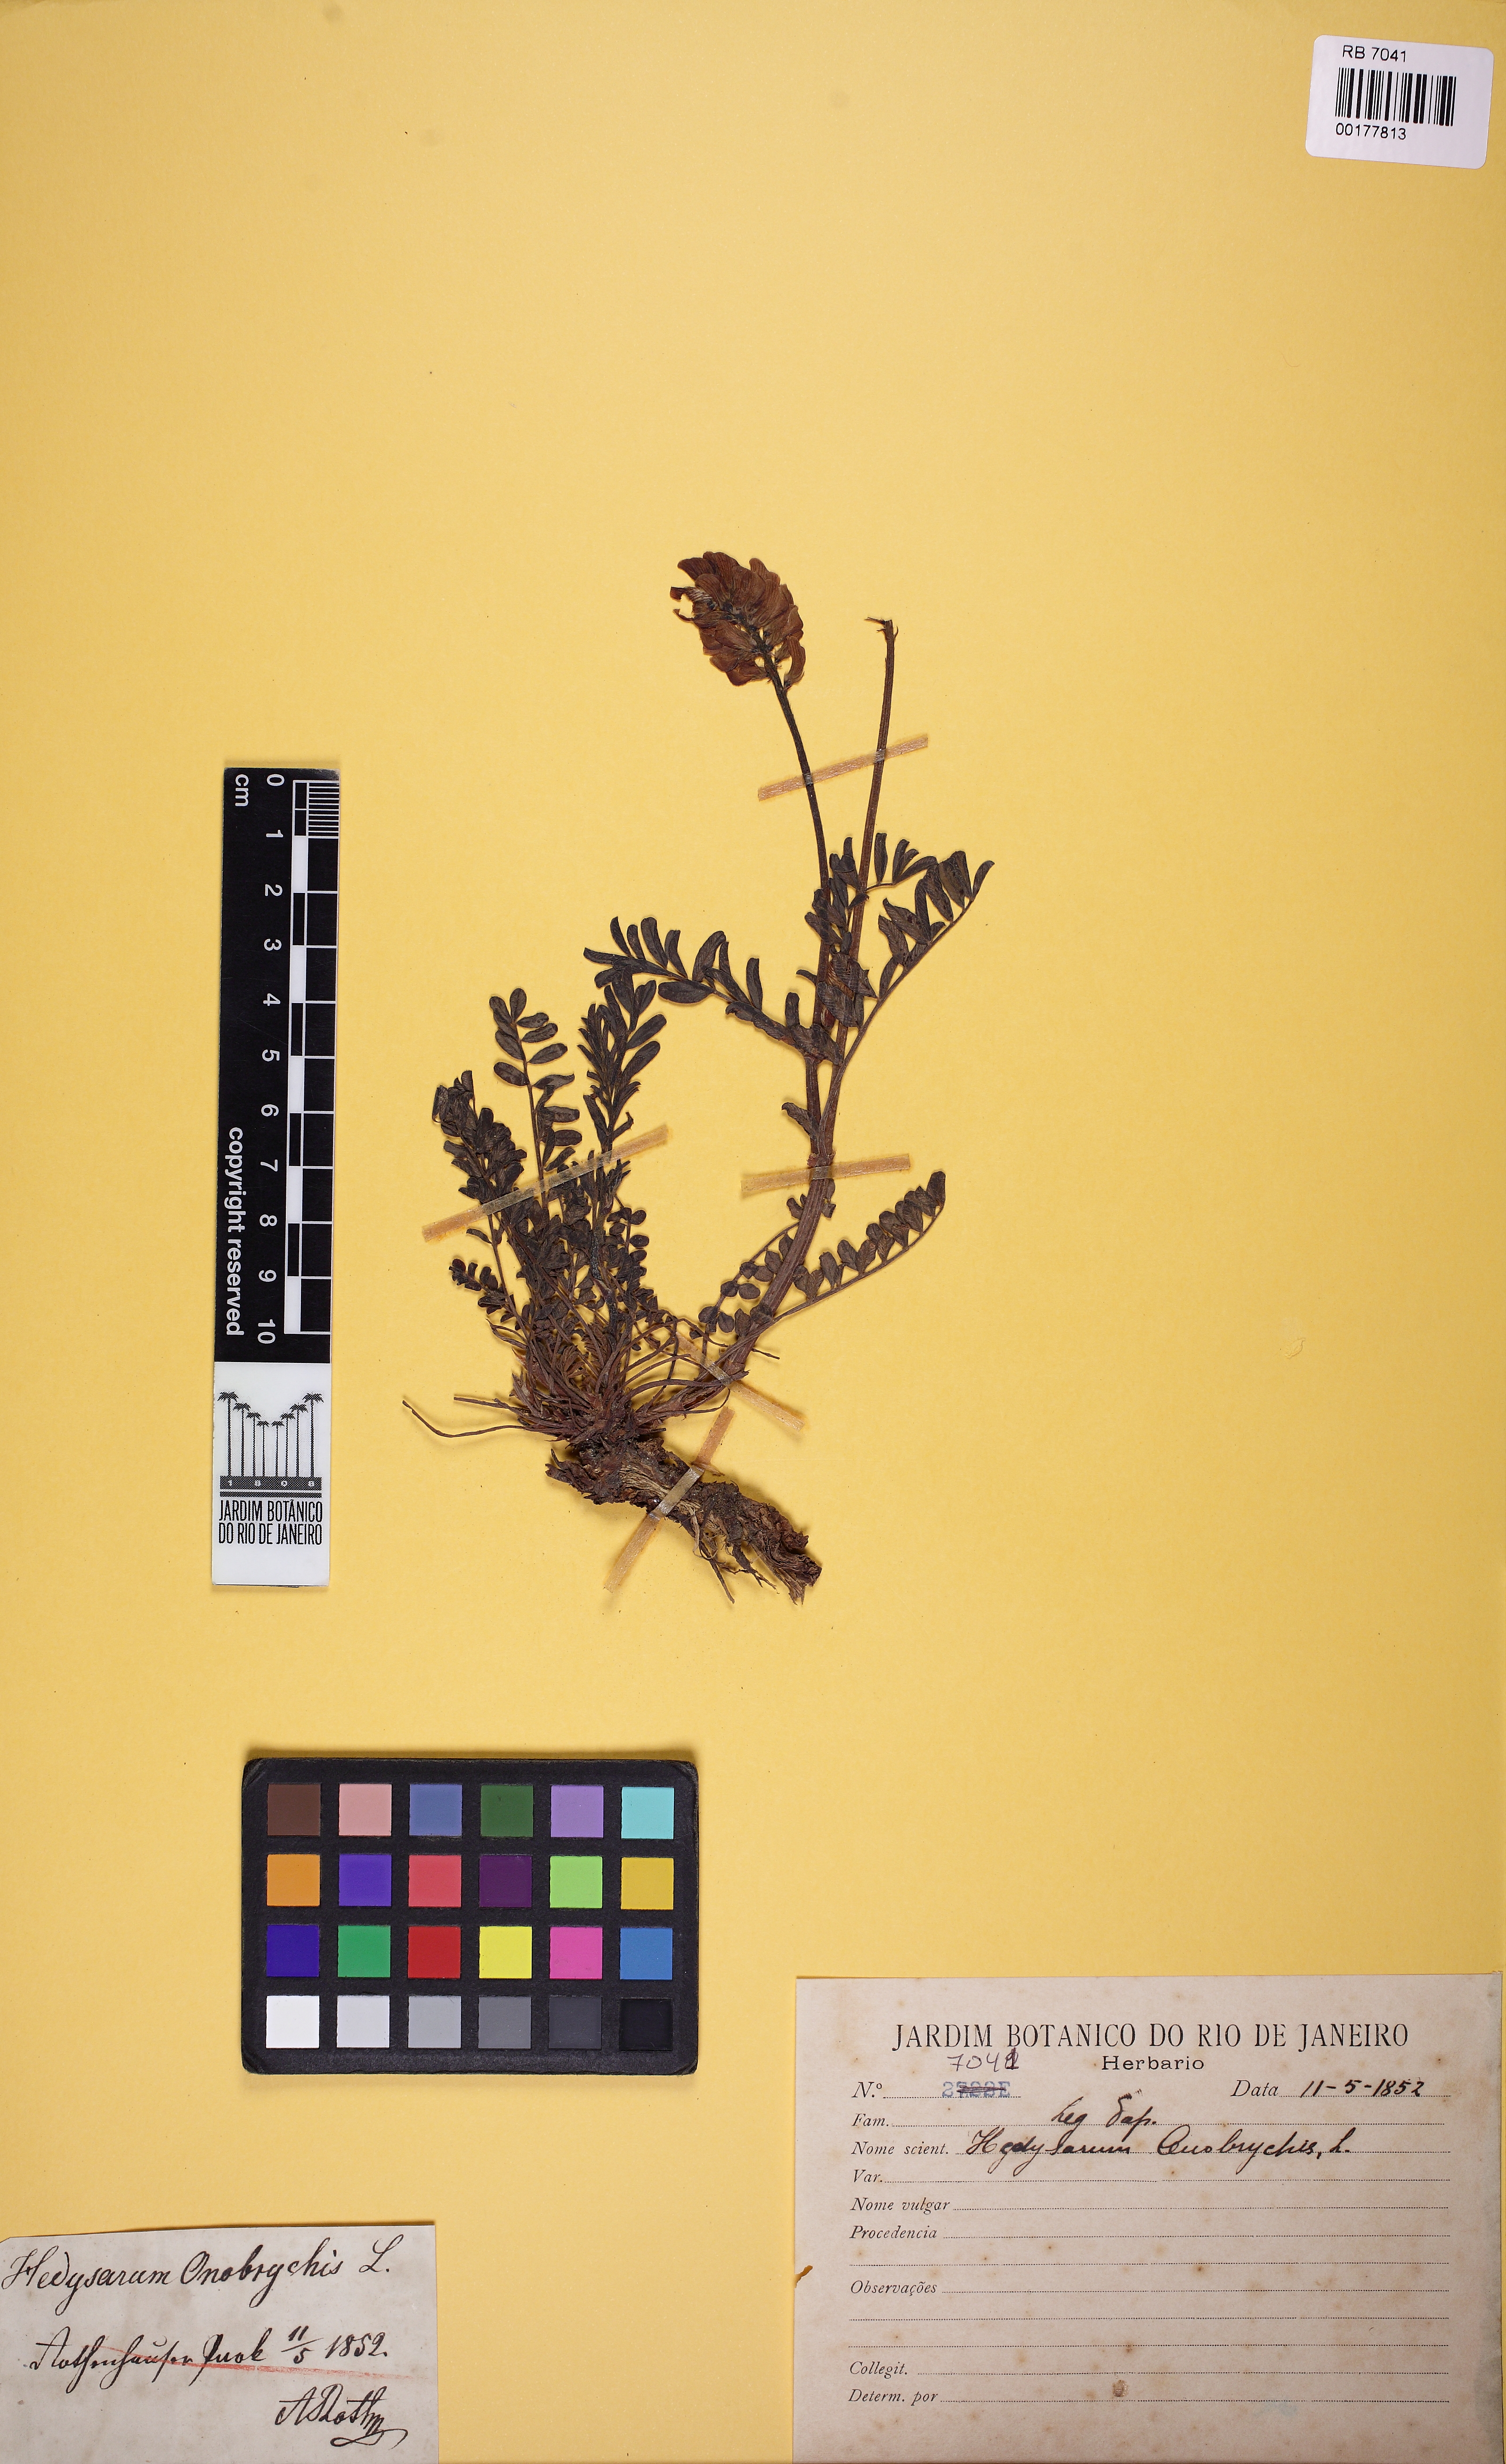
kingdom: Plantae
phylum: Tracheophyta
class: Magnoliopsida
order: Fabales
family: Fabaceae
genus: Onobrychis
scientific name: Onobrychis viciifolia
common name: Sainfoin
